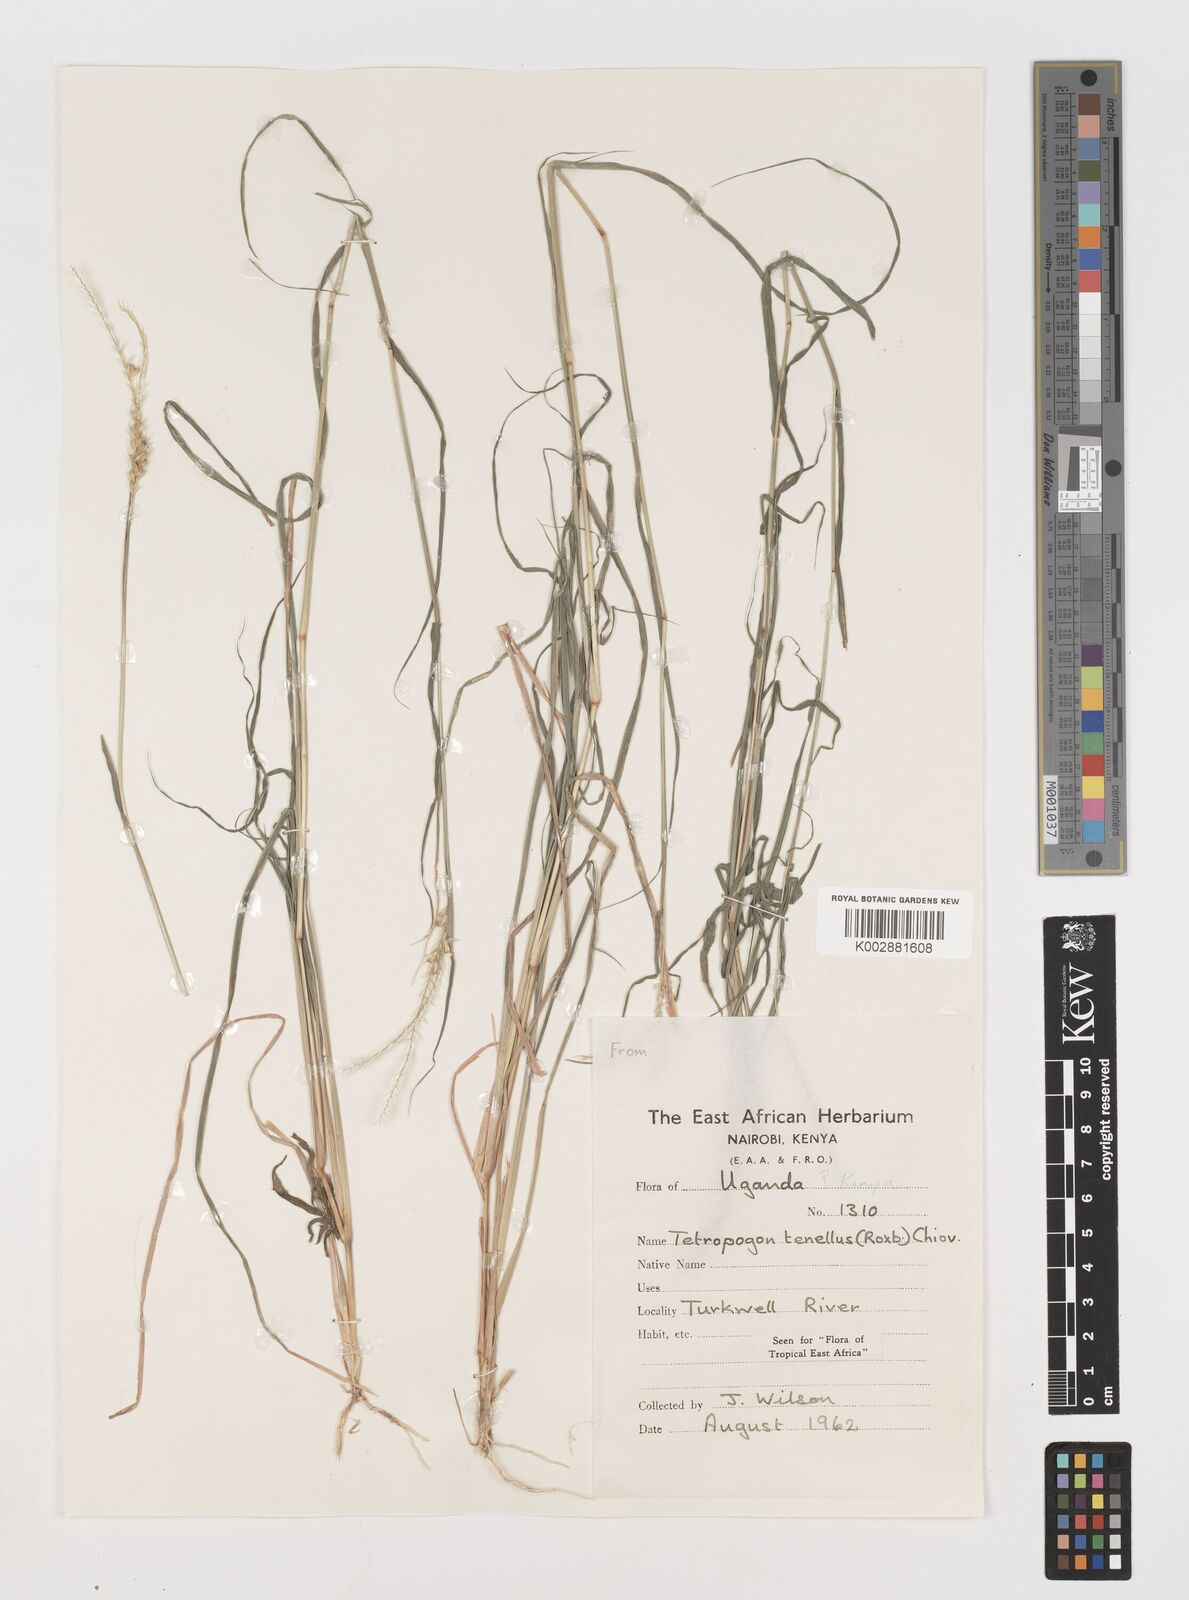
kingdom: Plantae
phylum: Tracheophyta
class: Liliopsida
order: Poales
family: Poaceae
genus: Tetrapogon
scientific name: Tetrapogon tenellus
